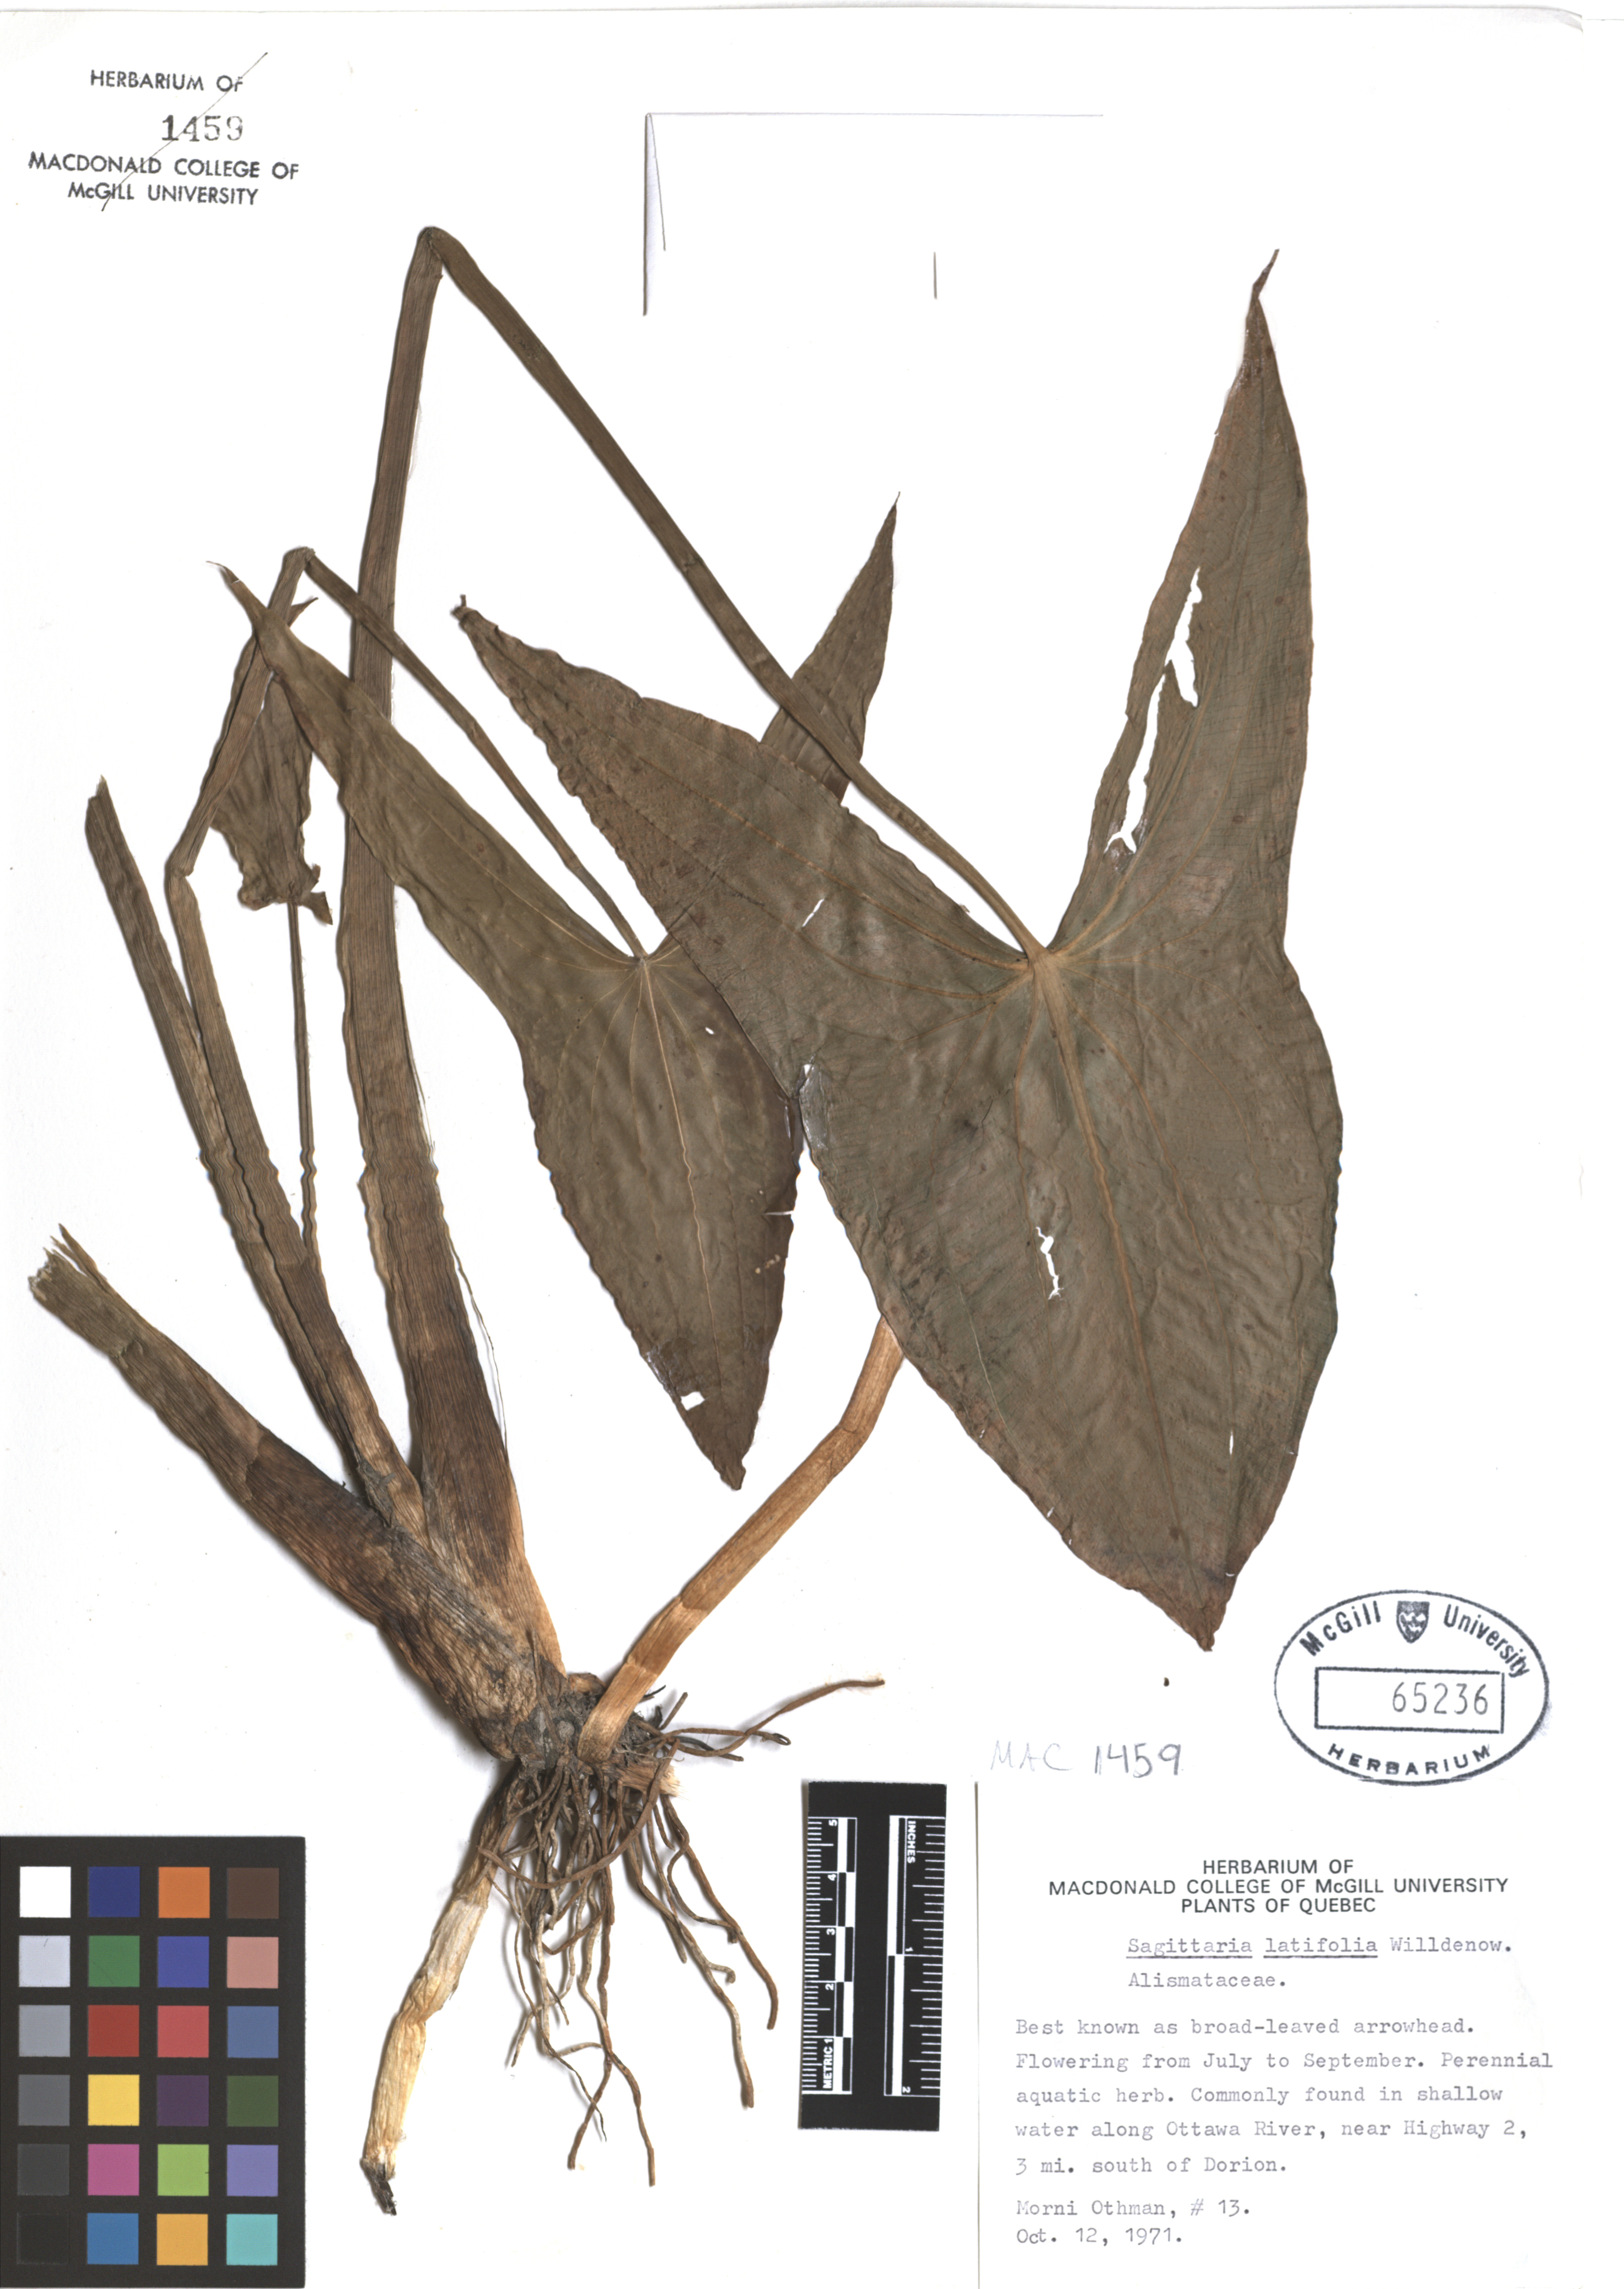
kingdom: Plantae
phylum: Tracheophyta
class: Liliopsida
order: Alismatales
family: Alismataceae
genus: Sagittaria
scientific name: Sagittaria latifolia
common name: Duck-potato
